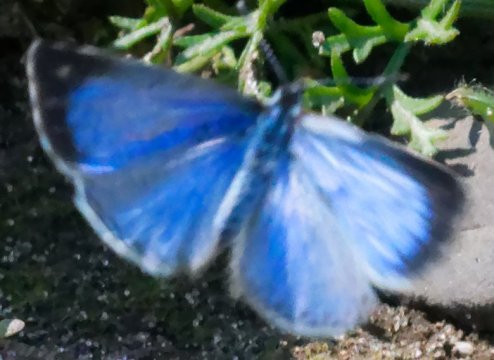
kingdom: Animalia
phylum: Arthropoda
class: Insecta
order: Lepidoptera
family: Lycaenidae
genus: Celastrina
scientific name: Celastrina serotina
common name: Cherry Gall Azure
